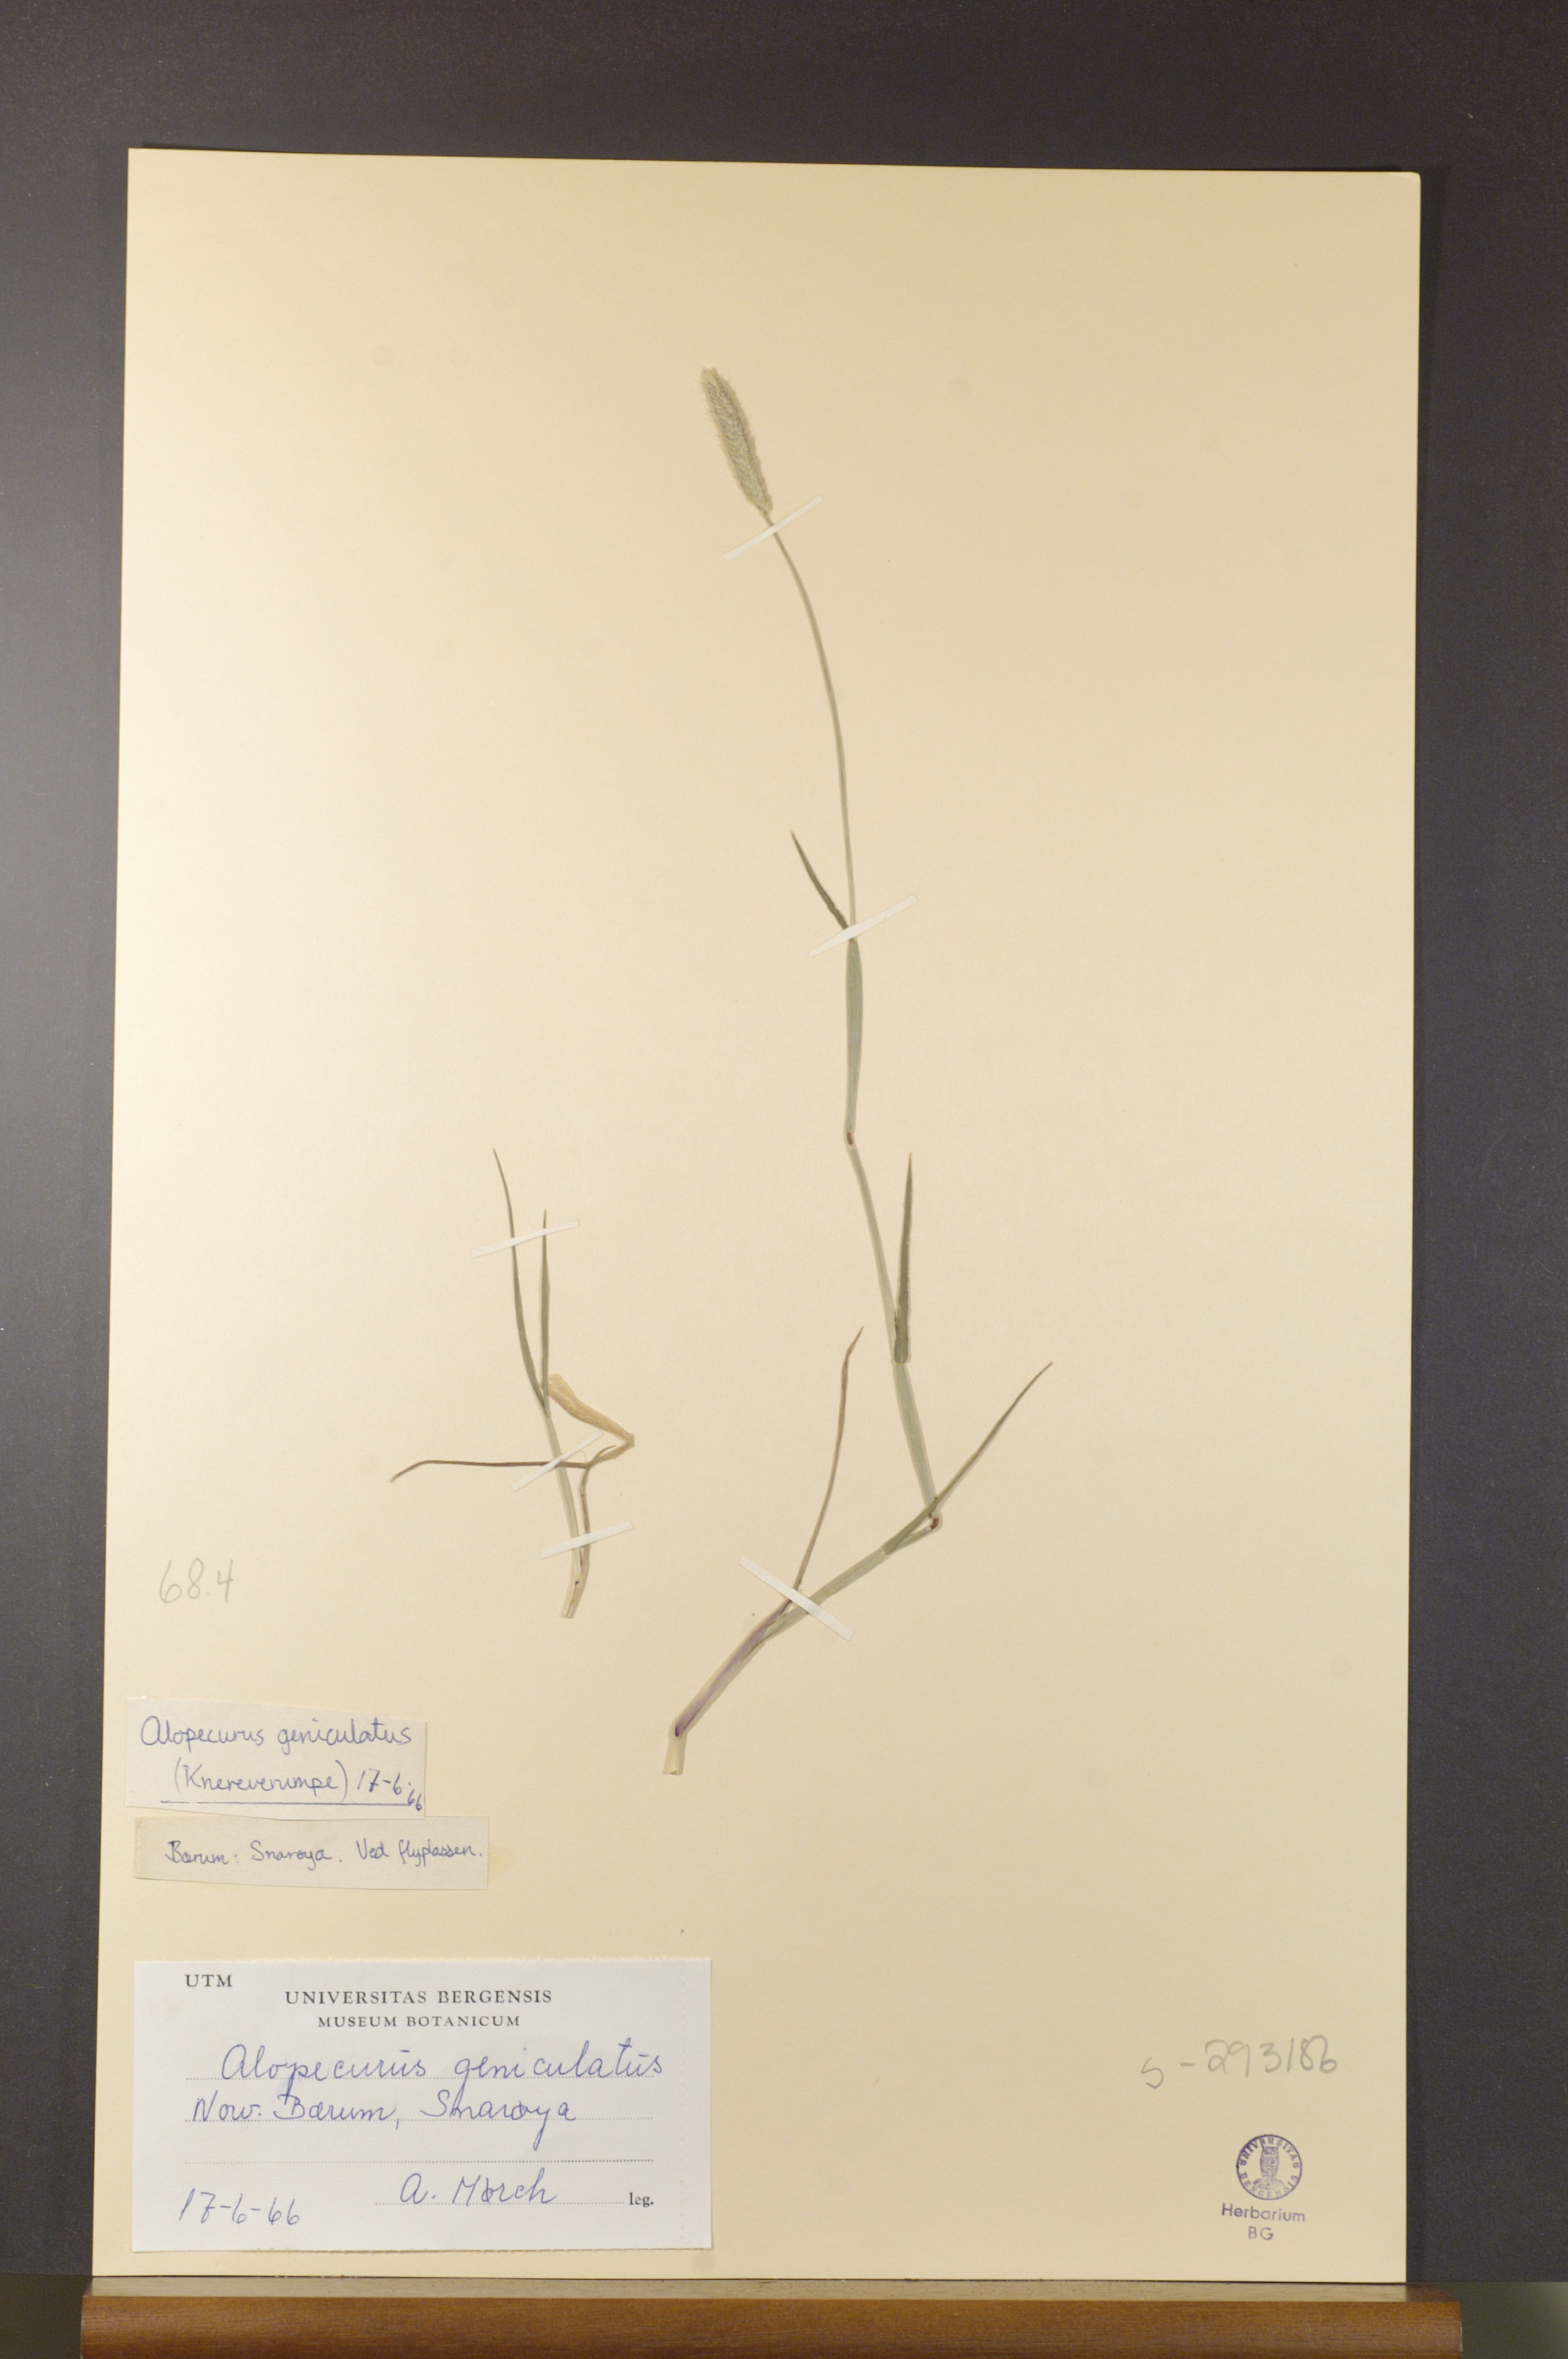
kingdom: Plantae
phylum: Tracheophyta
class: Liliopsida
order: Poales
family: Poaceae
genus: Alopecurus
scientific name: Alopecurus geniculatus
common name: Water foxtail
